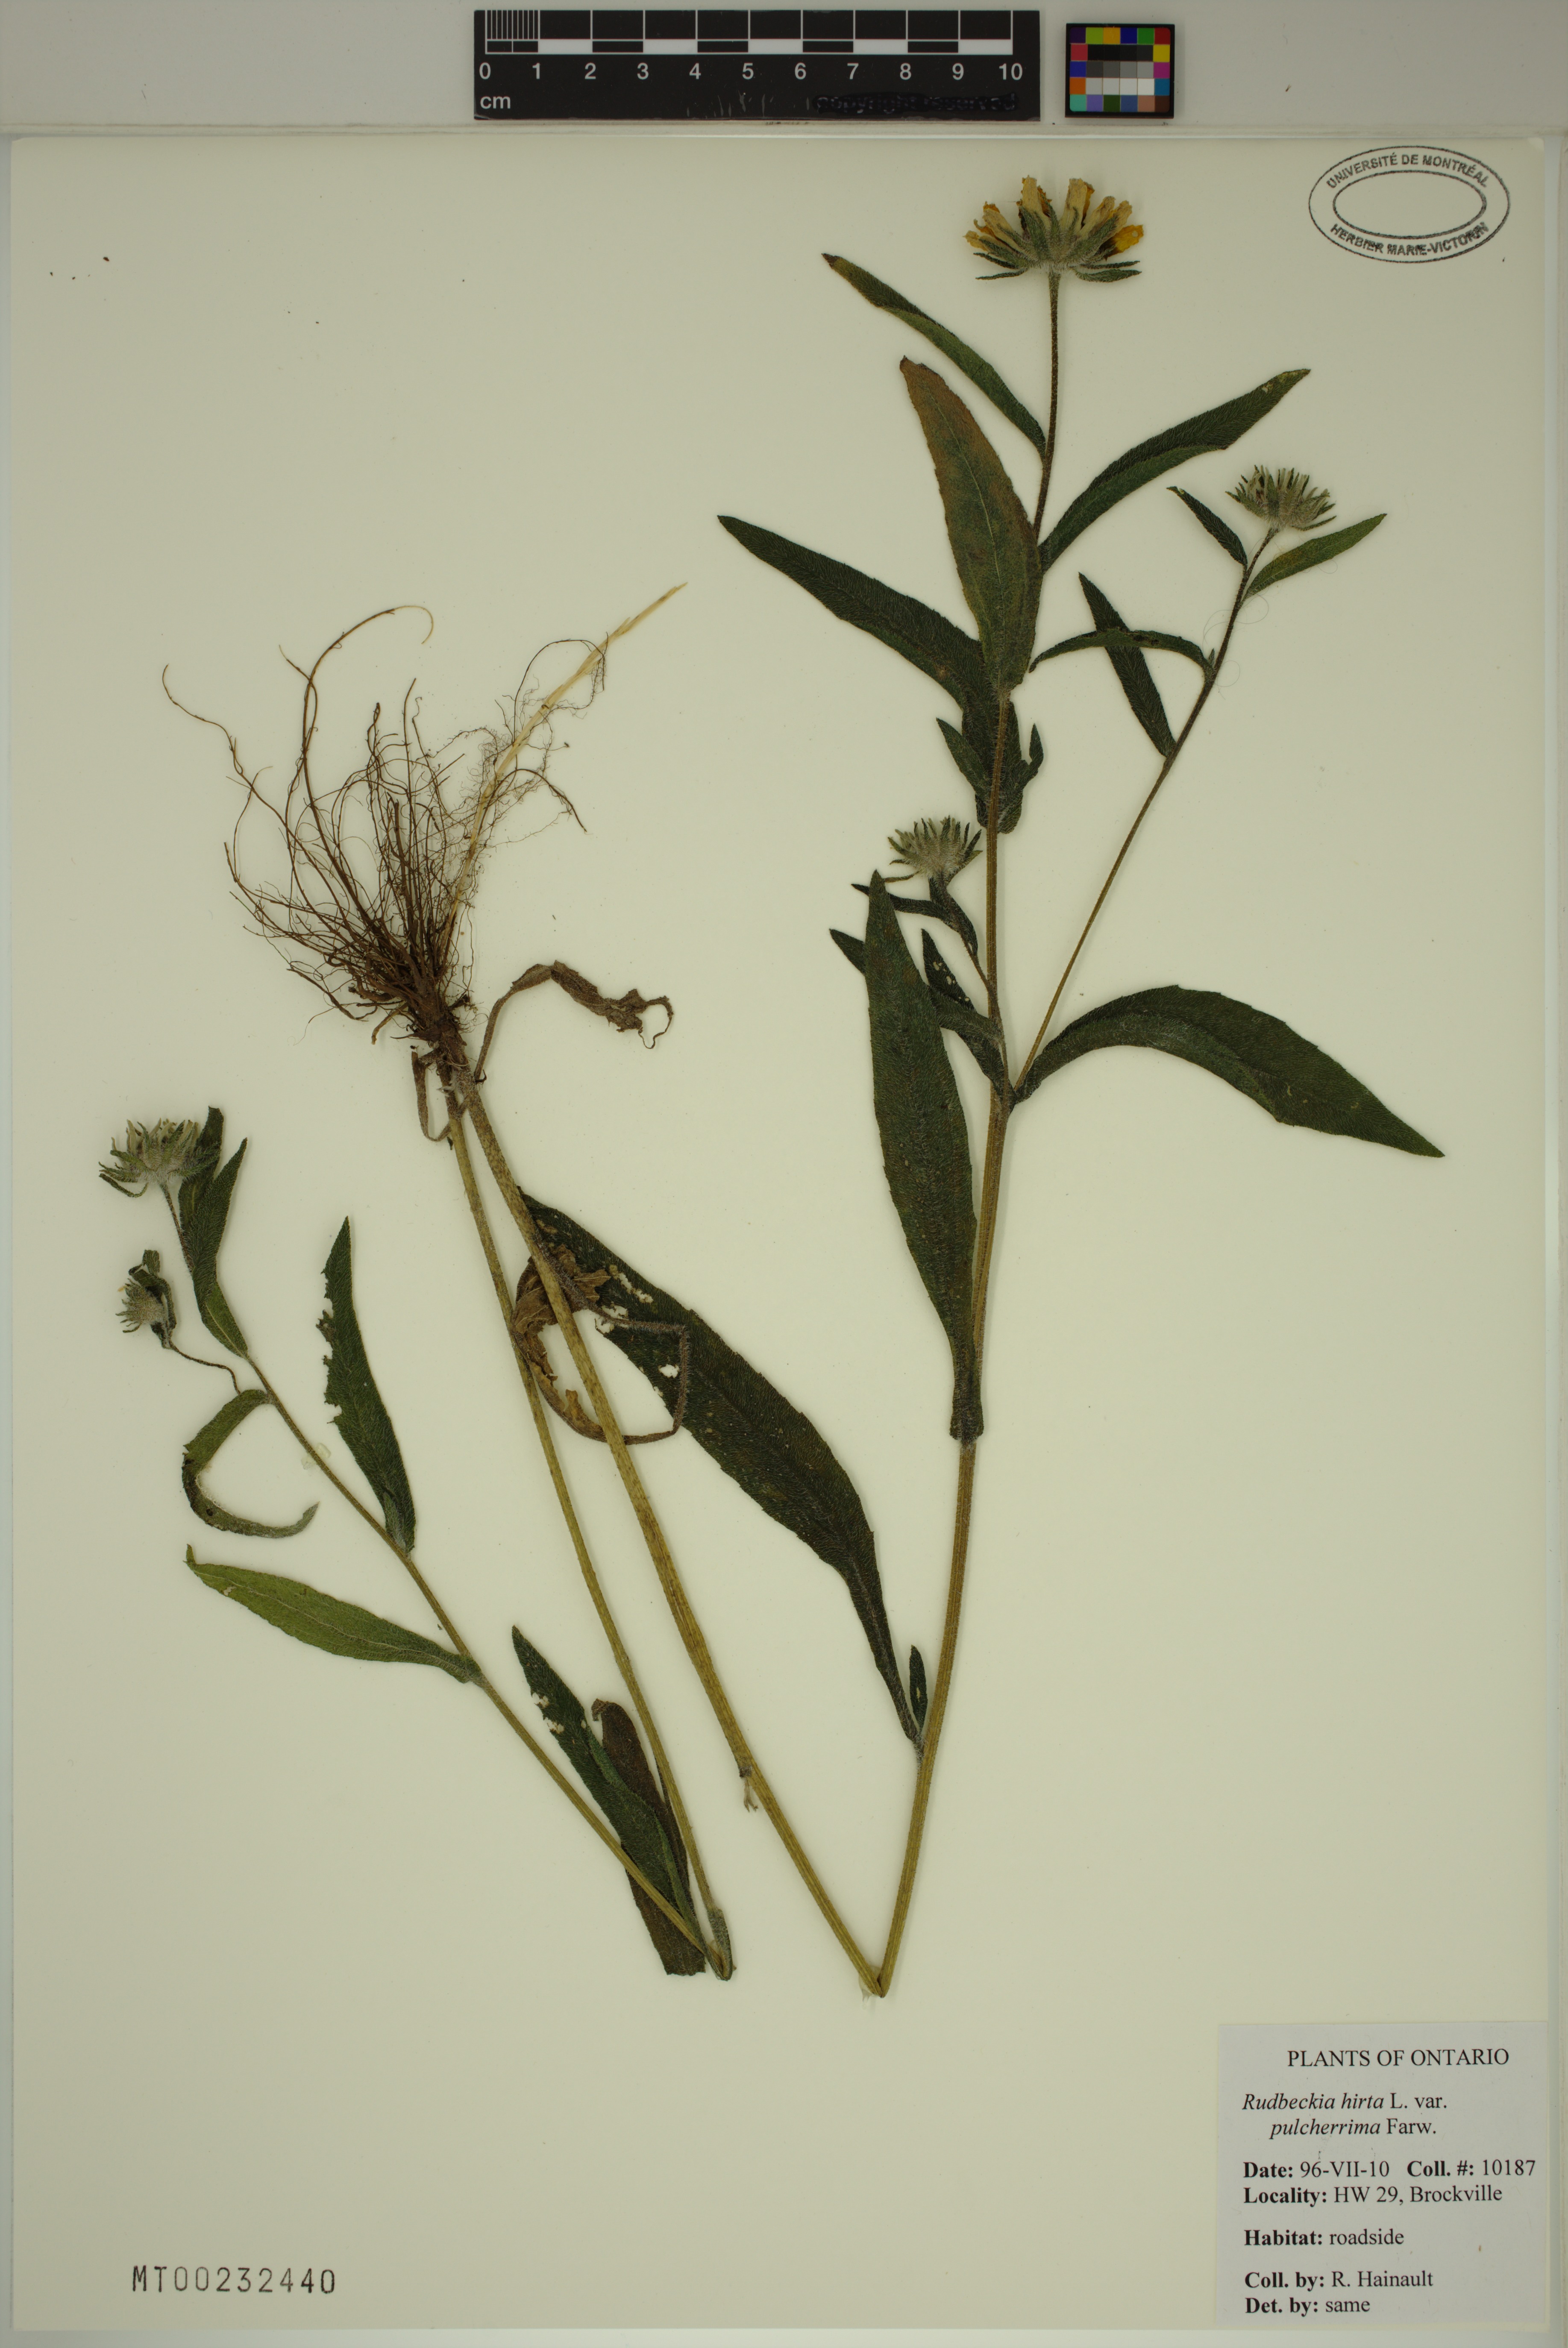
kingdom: Plantae
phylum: Tracheophyta
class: Magnoliopsida
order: Asterales
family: Asteraceae
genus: Rudbeckia
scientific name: Rudbeckia hirta
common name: Black-eyed-susan
